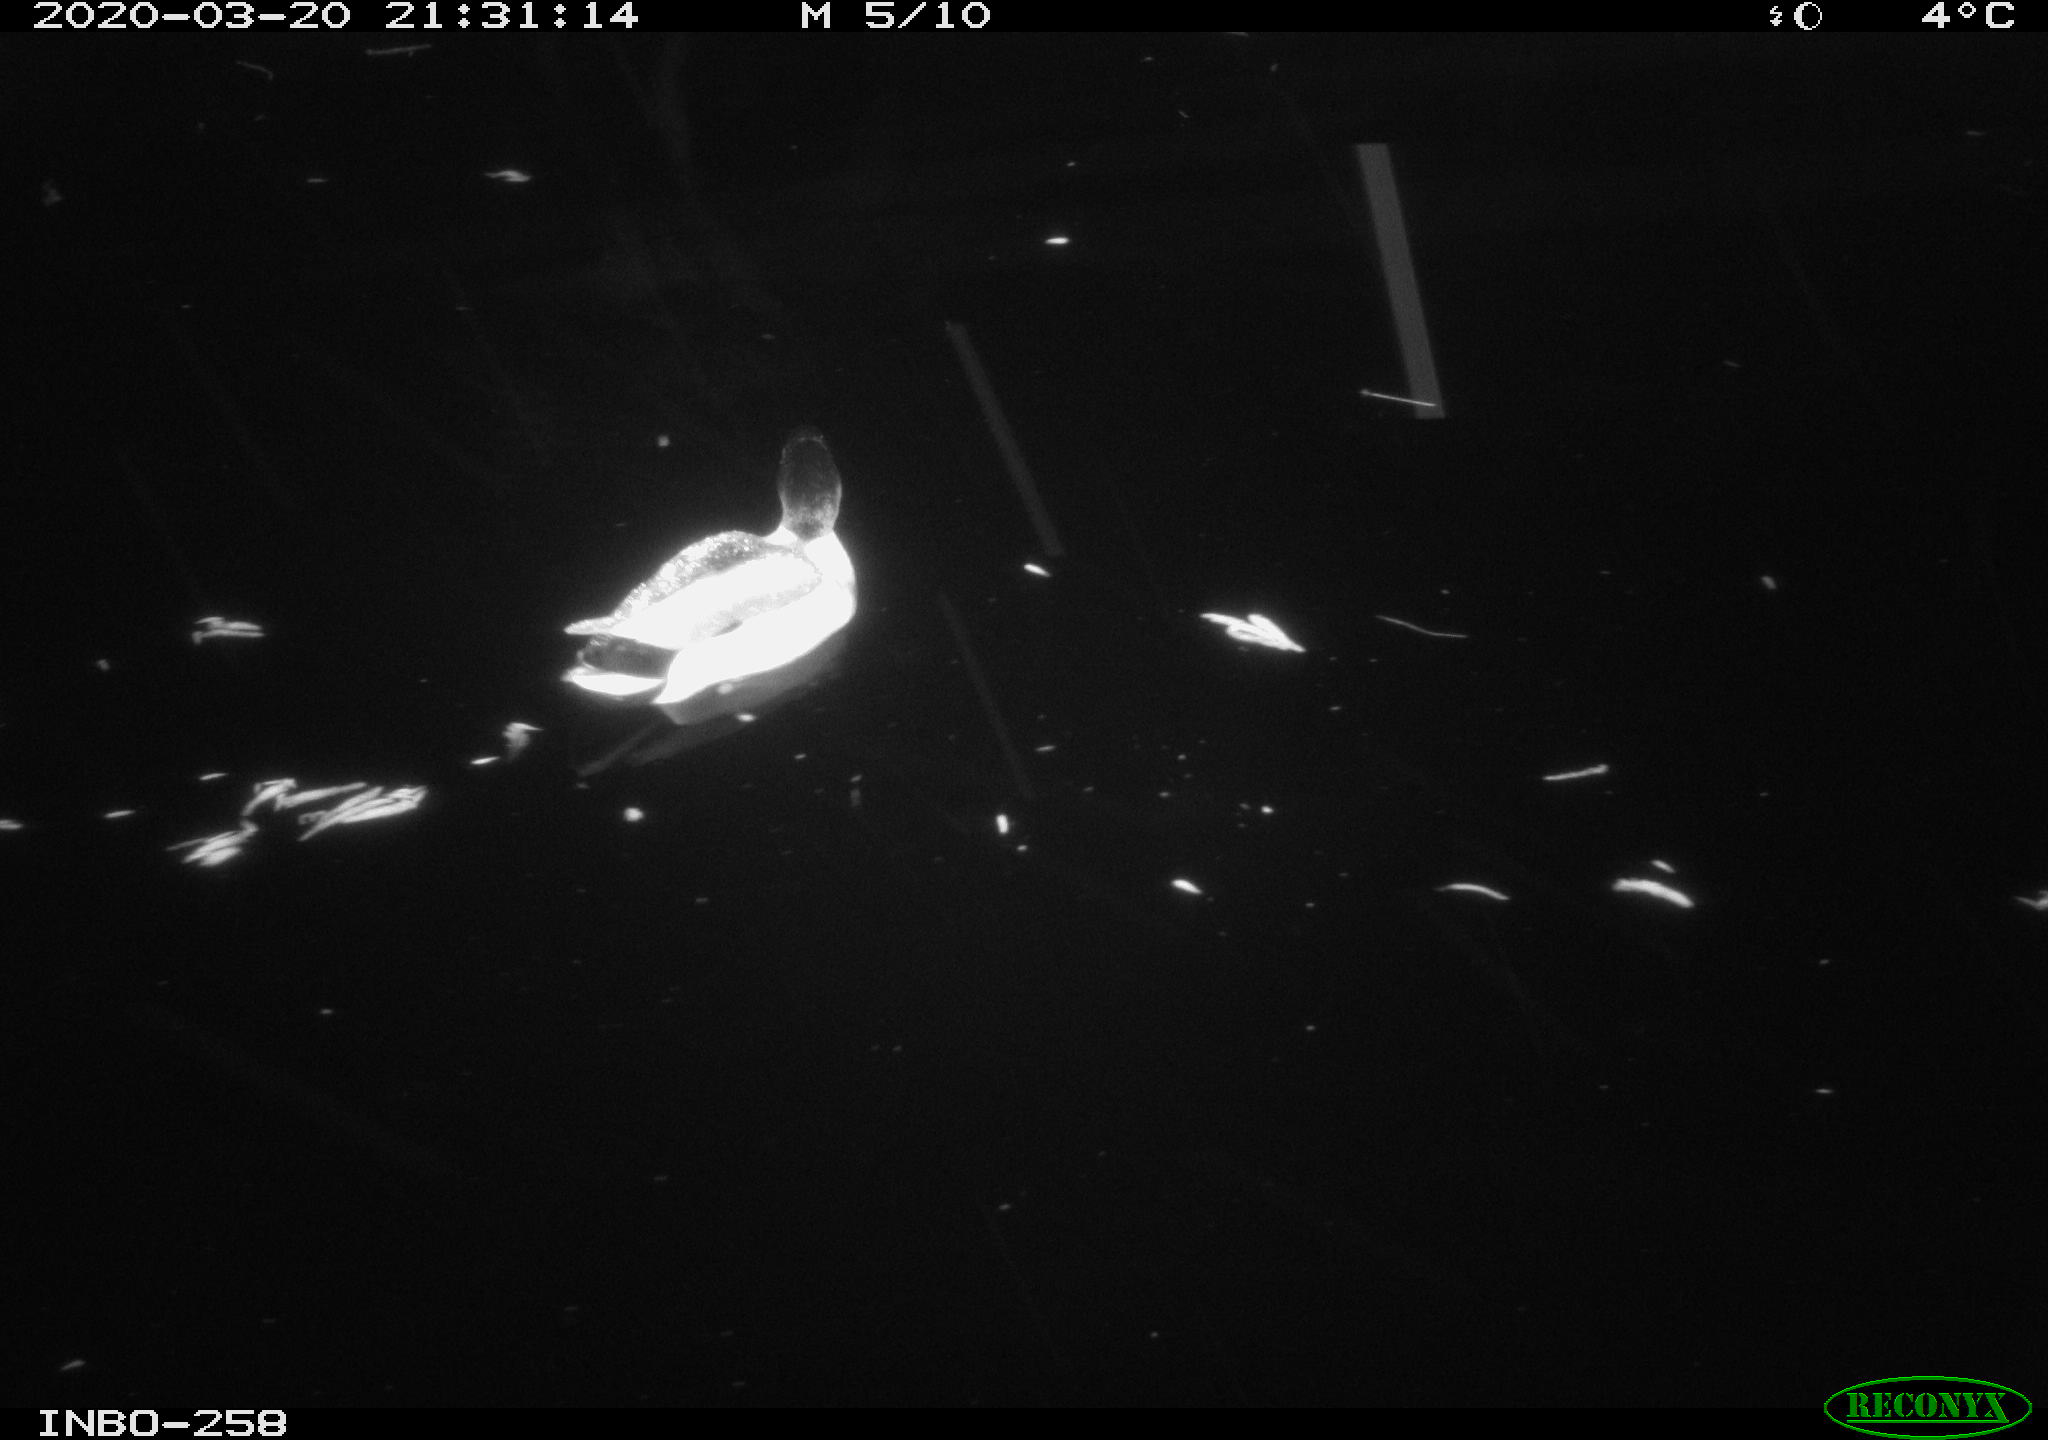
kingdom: Animalia
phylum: Chordata
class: Aves
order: Anseriformes
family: Anatidae
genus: Anas
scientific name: Anas platyrhynchos
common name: Mallard
